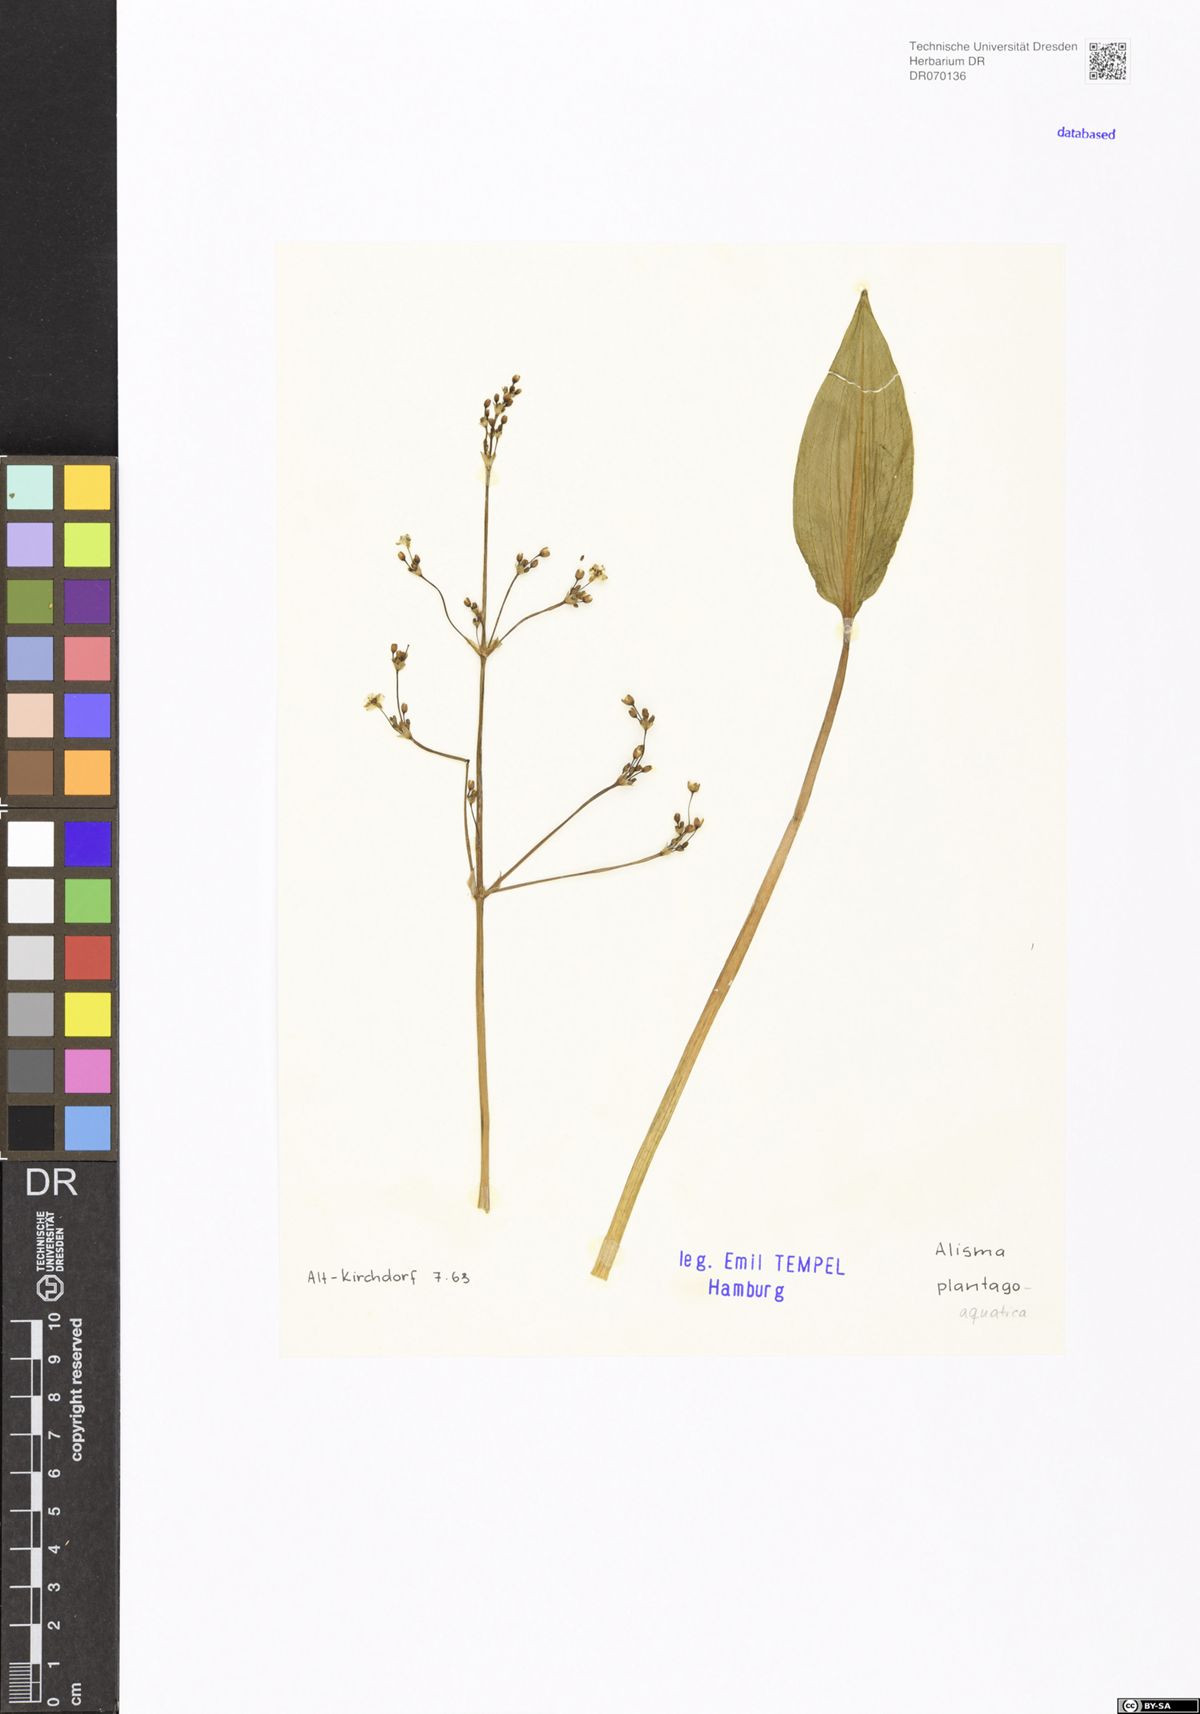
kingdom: Plantae
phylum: Tracheophyta
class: Liliopsida
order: Alismatales
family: Alismataceae
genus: Alisma
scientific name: Alisma plantago-aquatica
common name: Water-plantain
